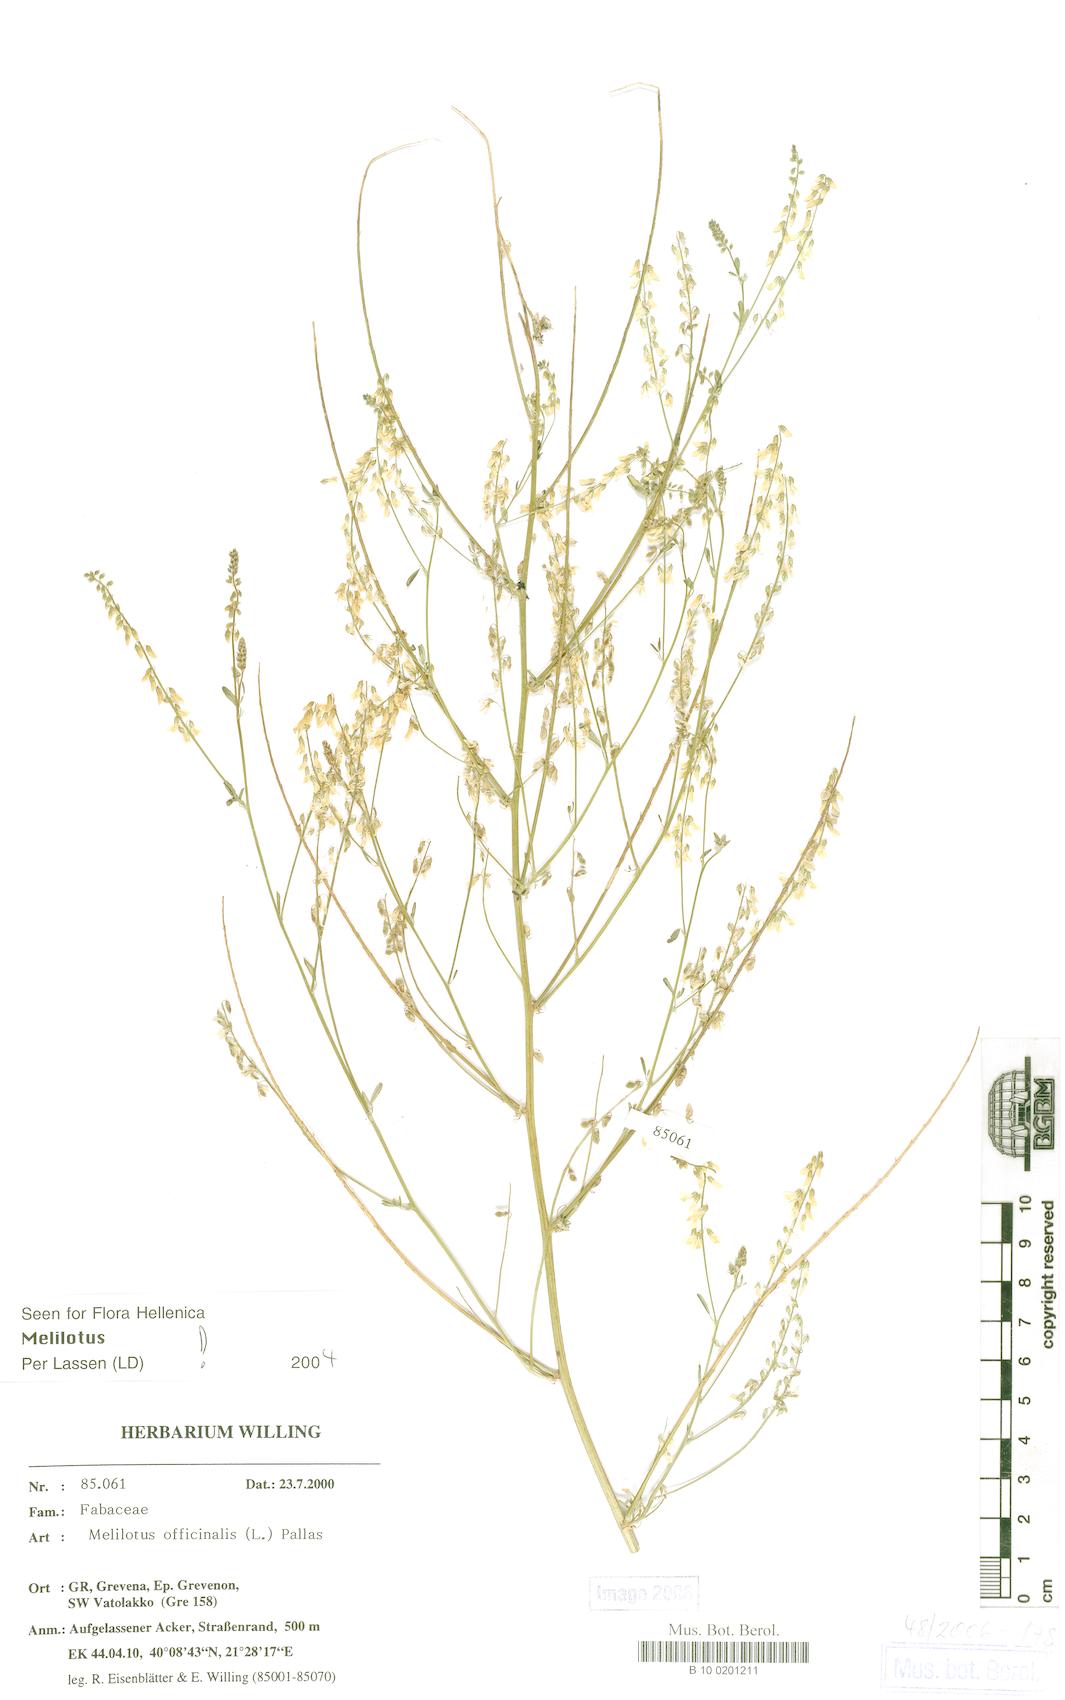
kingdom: Plantae
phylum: Tracheophyta
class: Magnoliopsida
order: Fabales
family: Fabaceae
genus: Melilotus
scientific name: Melilotus officinalis
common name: Sweetclover
